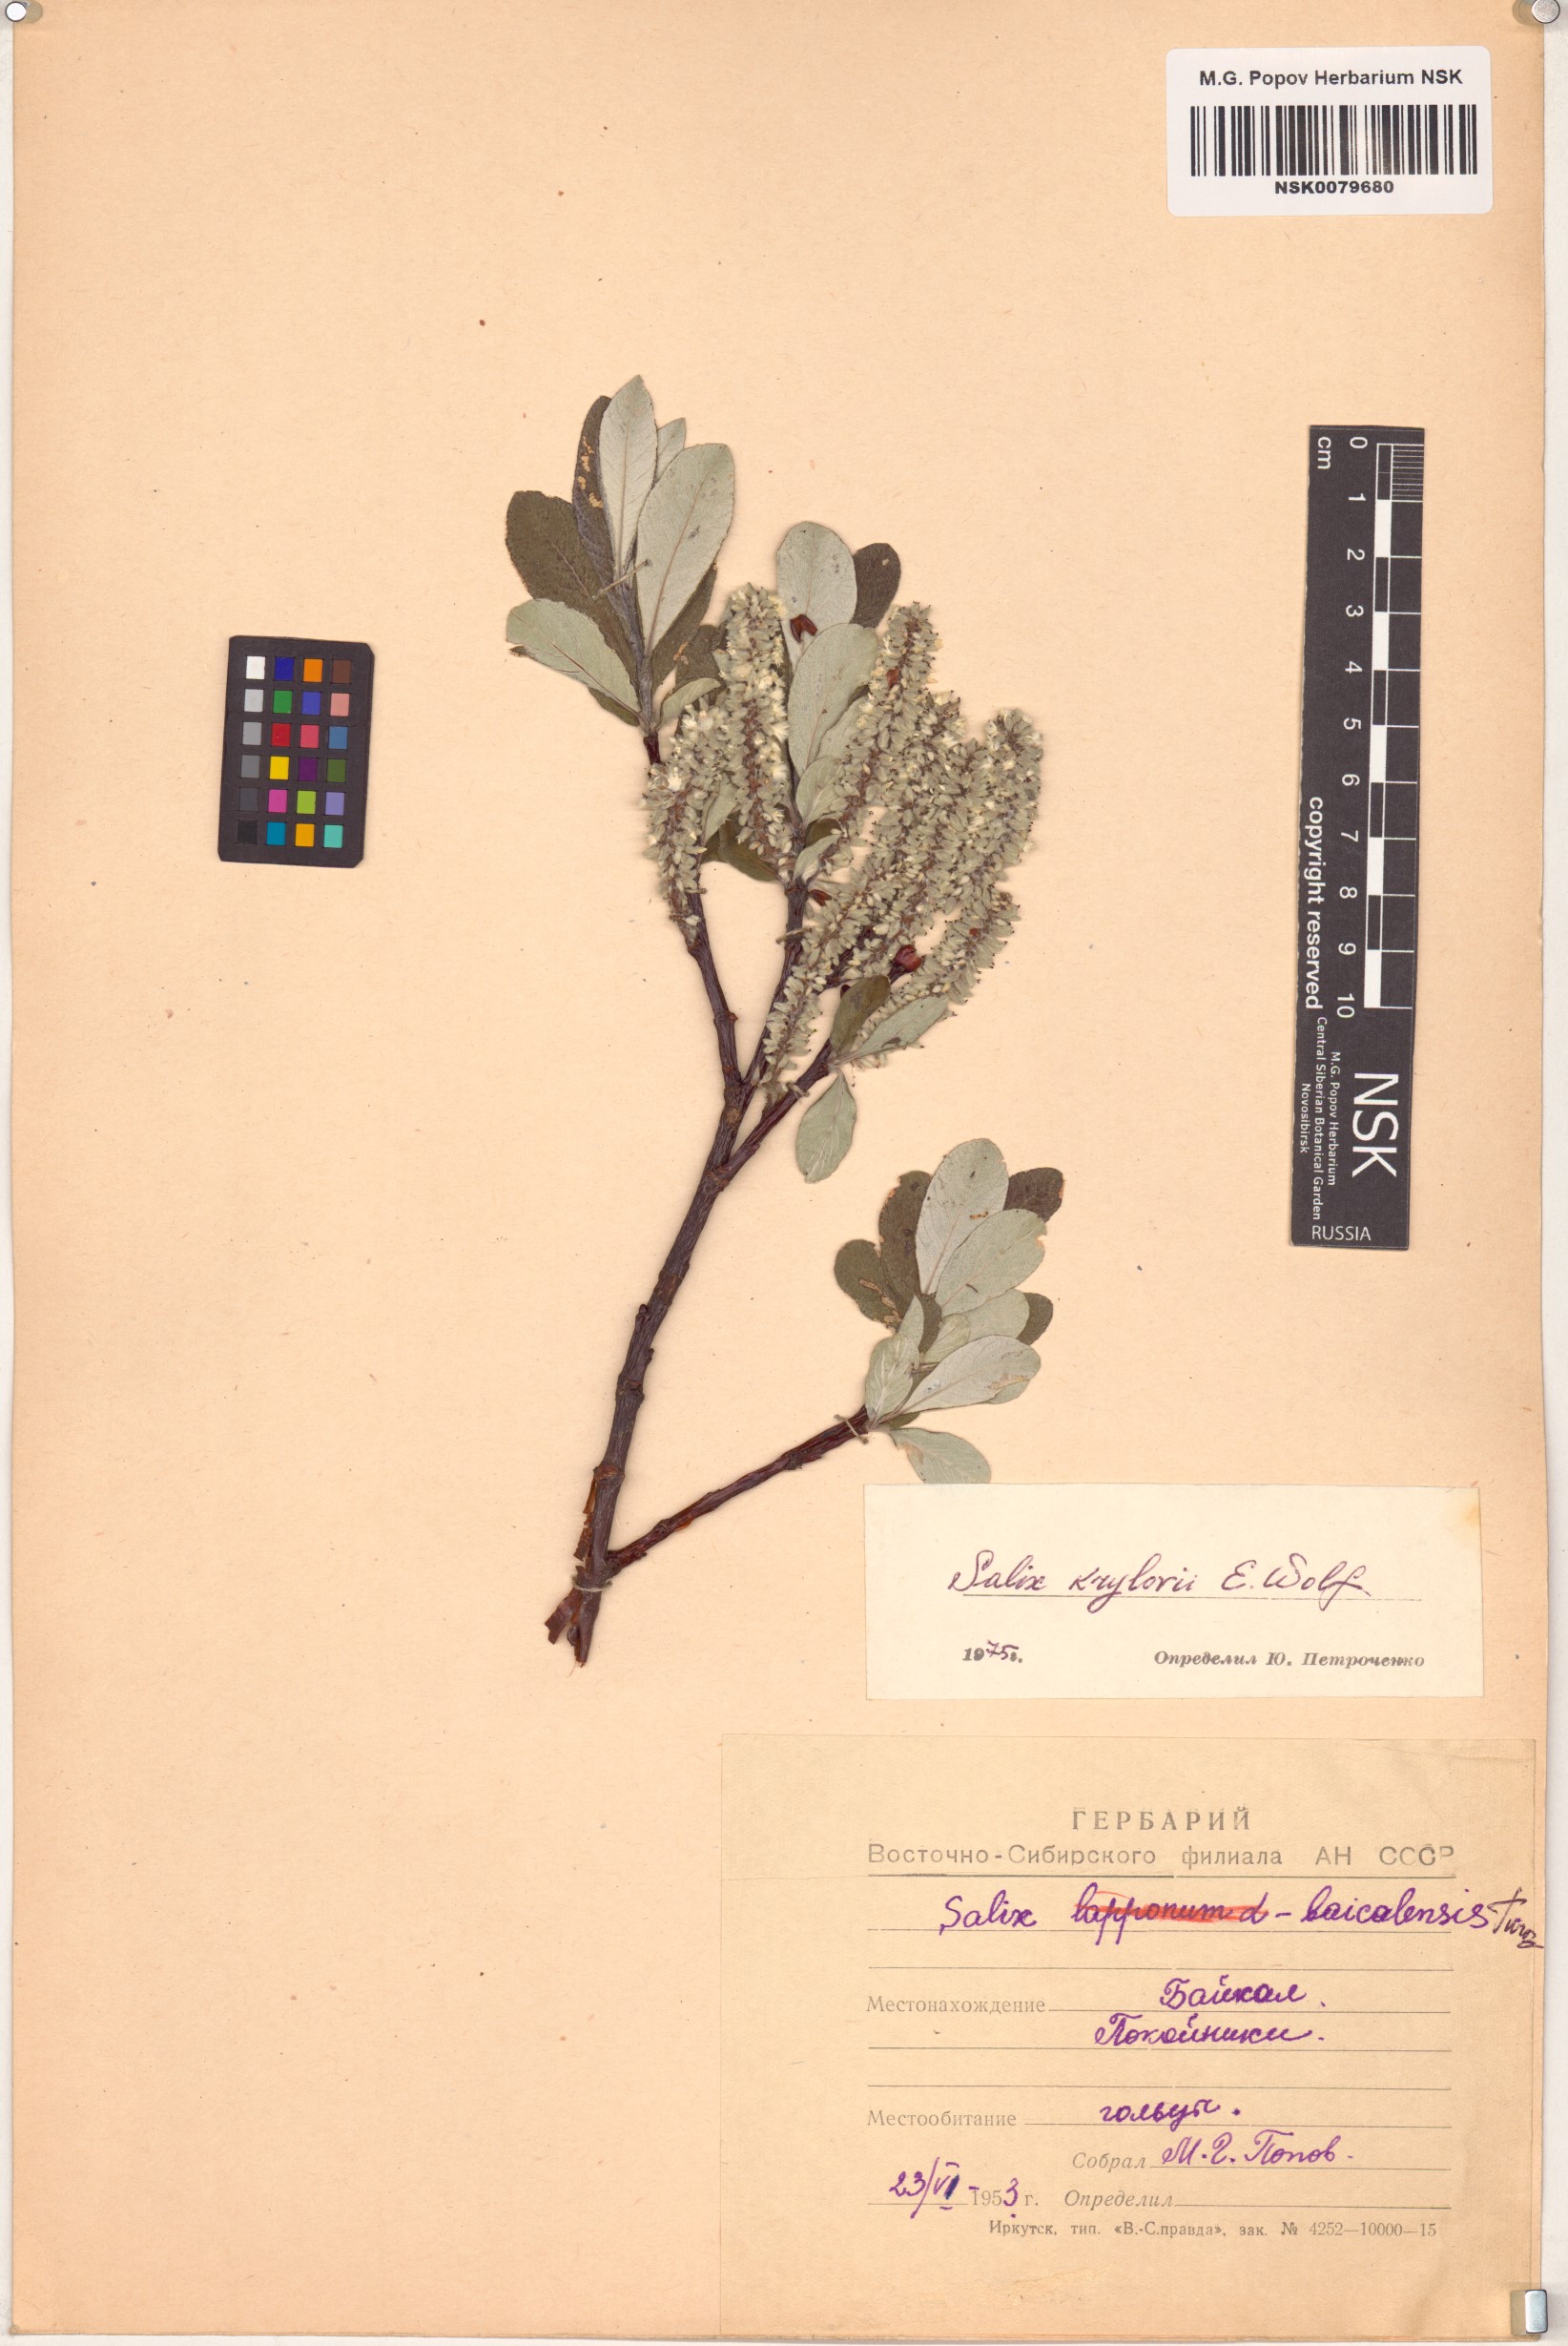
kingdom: Plantae
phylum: Tracheophyta
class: Magnoliopsida
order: Malpighiales
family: Salicaceae
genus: Salix
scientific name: Salix krylovii
